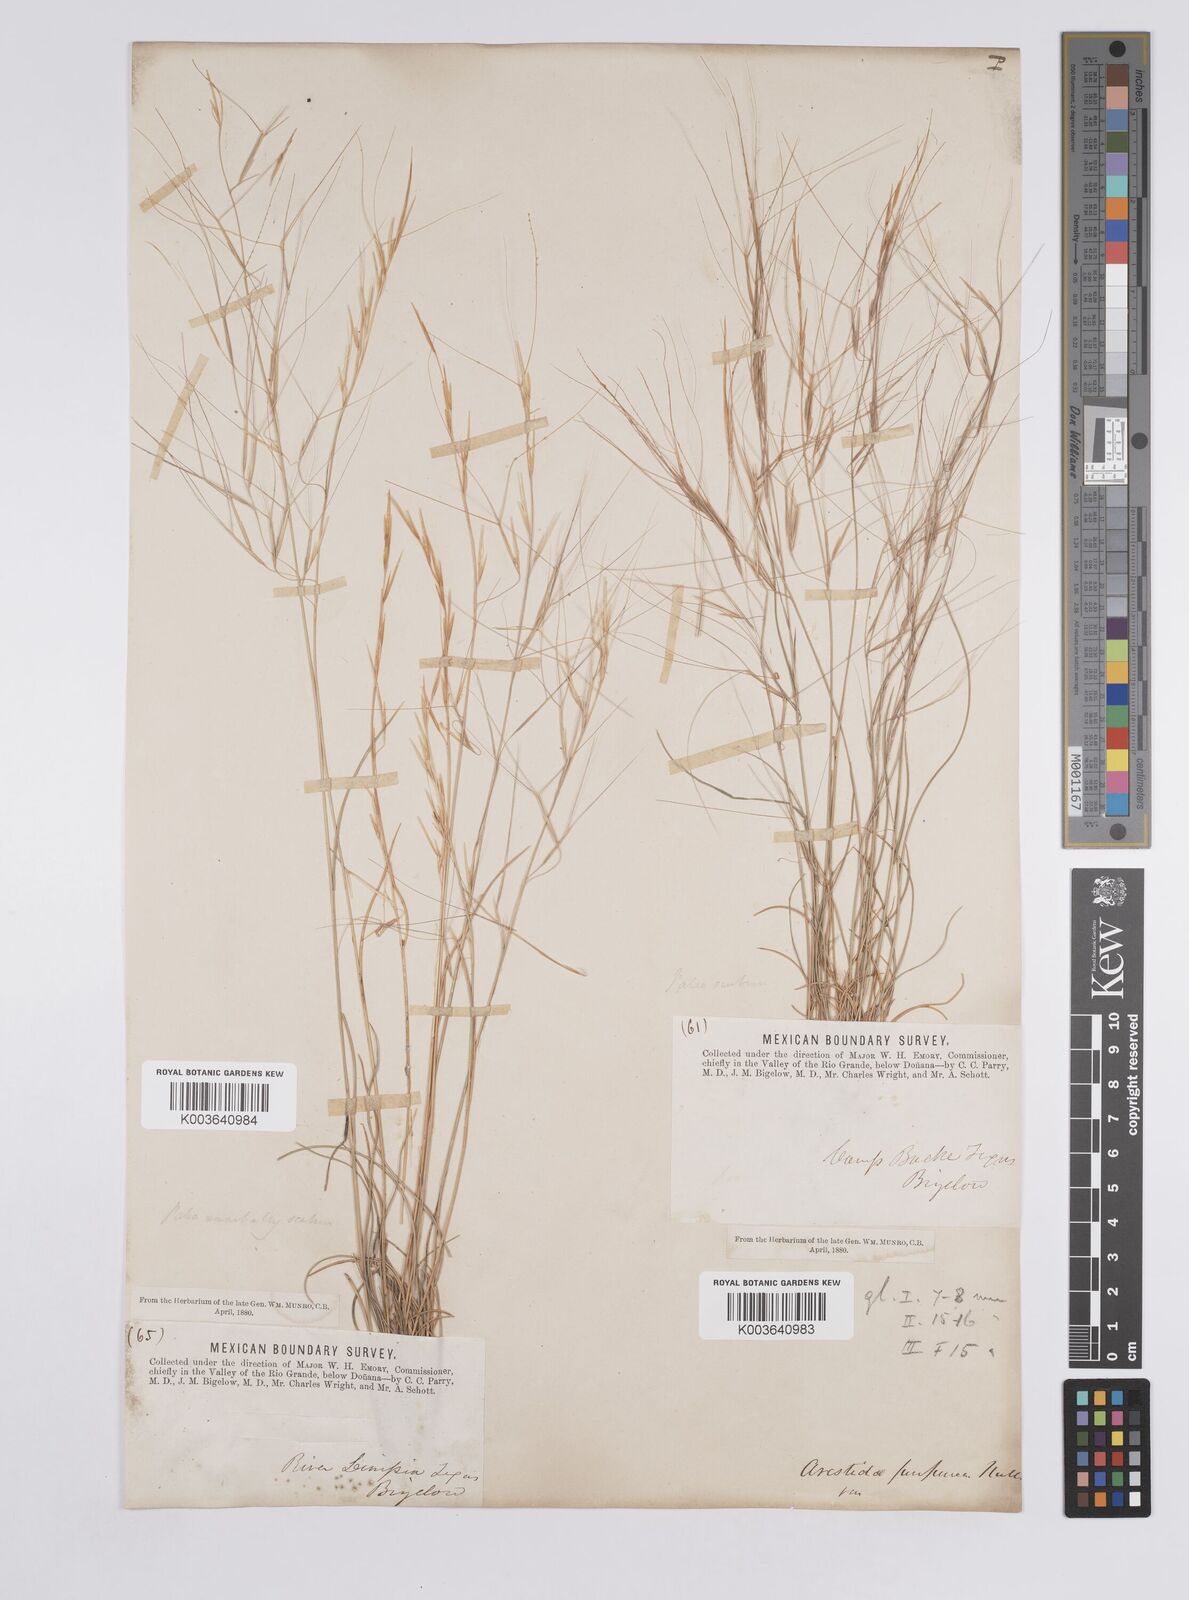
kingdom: Plantae
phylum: Tracheophyta
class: Liliopsida
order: Poales
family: Poaceae
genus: Aristida
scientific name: Aristida purpurea
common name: Purple threeawn
